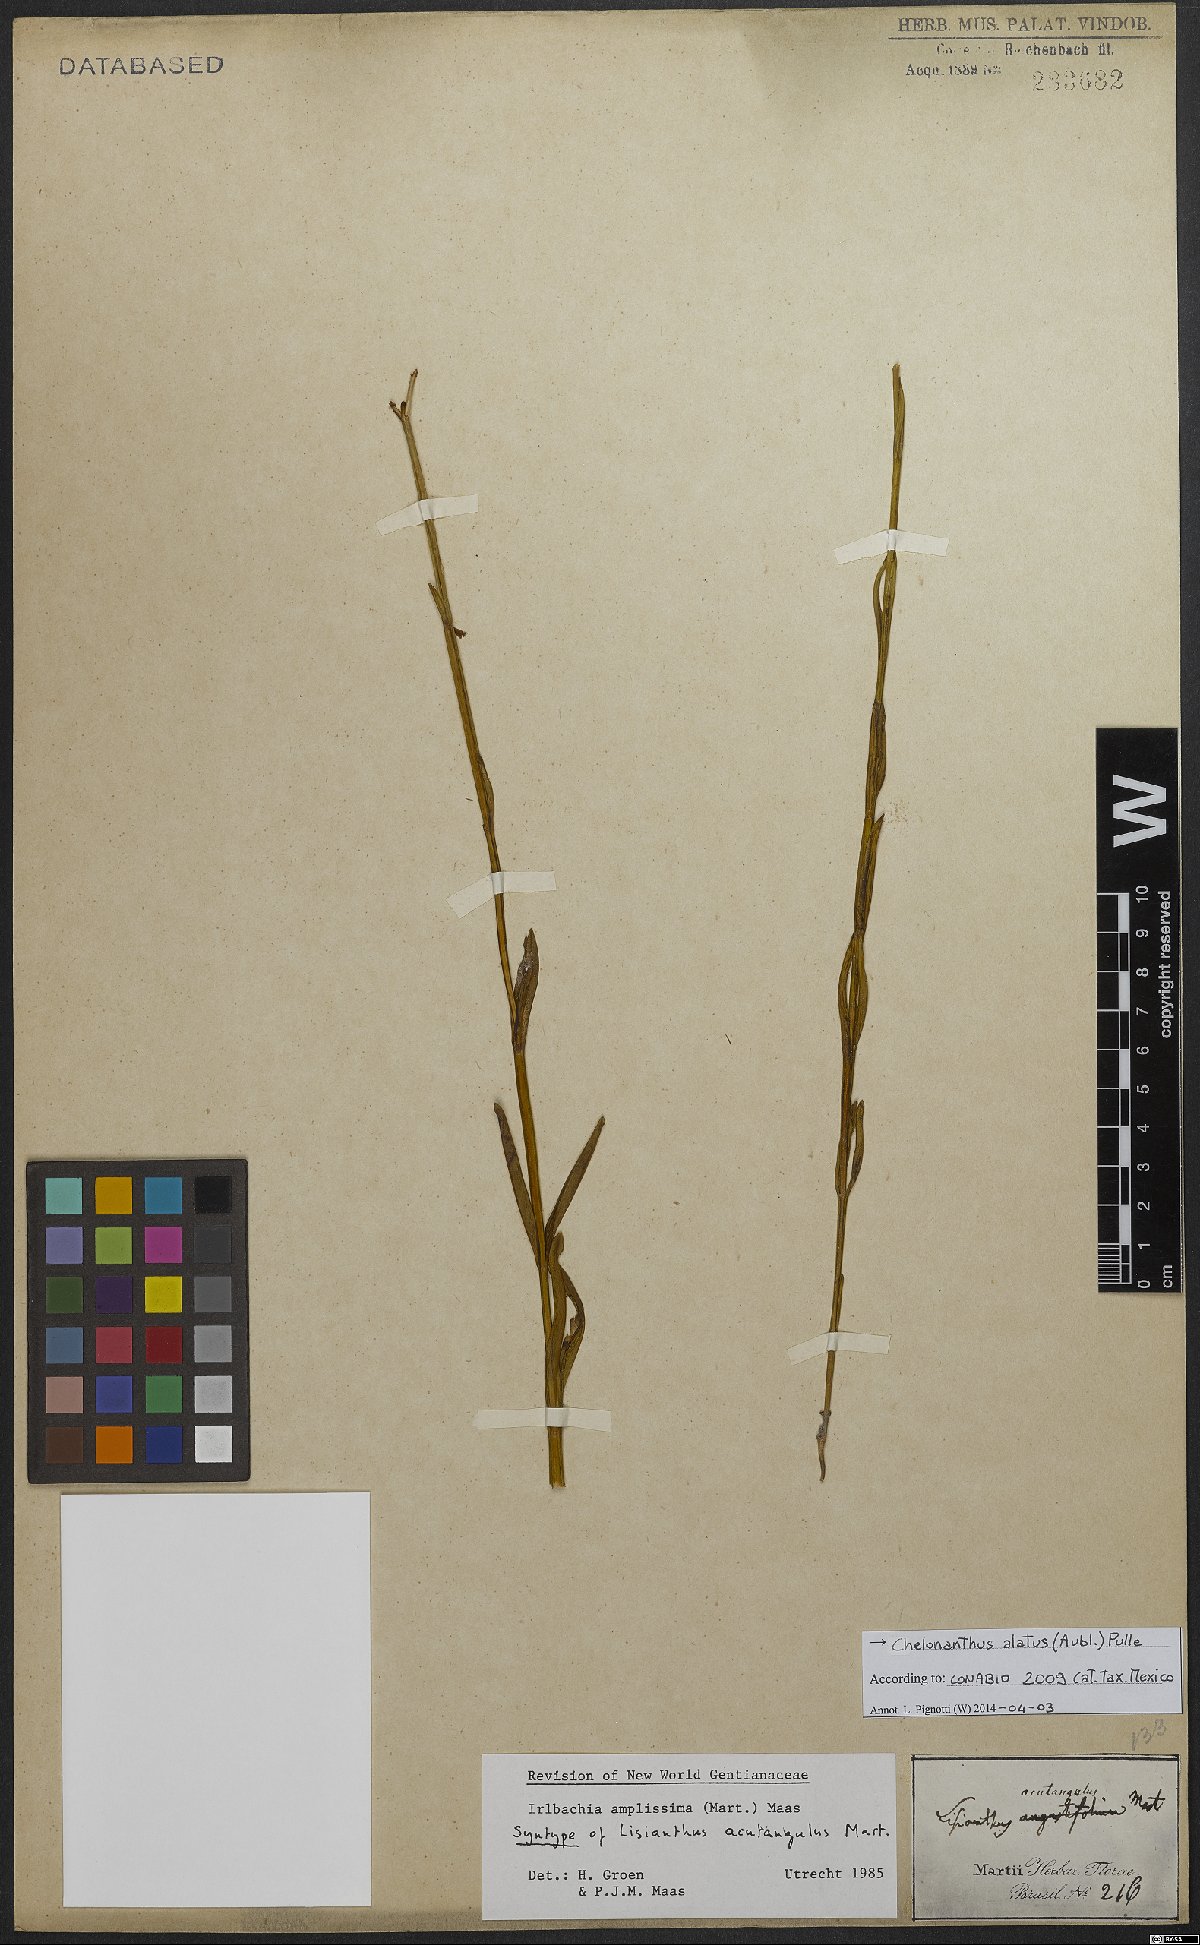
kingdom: Plantae
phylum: Tracheophyta
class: Magnoliopsida
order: Gentianales
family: Gentianaceae
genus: Chelonanthus
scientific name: Chelonanthus alatus
